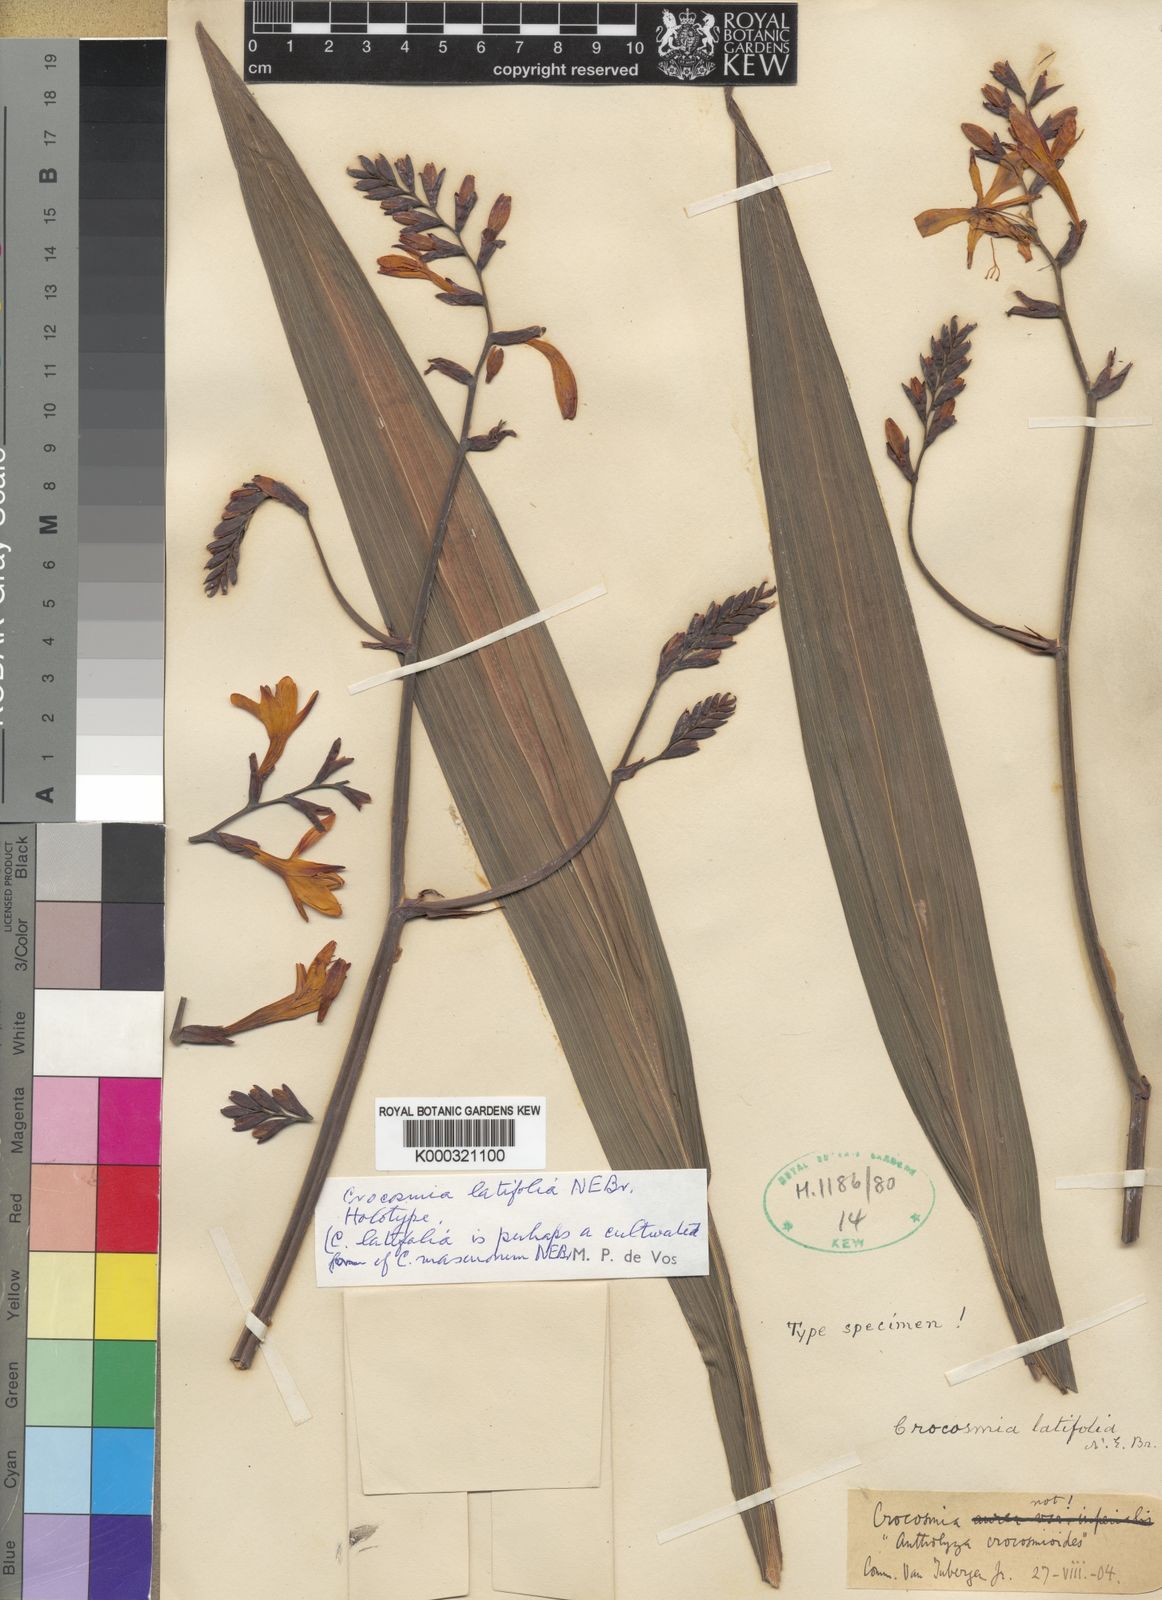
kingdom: Plantae
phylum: Tracheophyta
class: Liliopsida
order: Asparagales
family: Iridaceae
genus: Crocosmia
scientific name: Crocosmia crocosmioides
